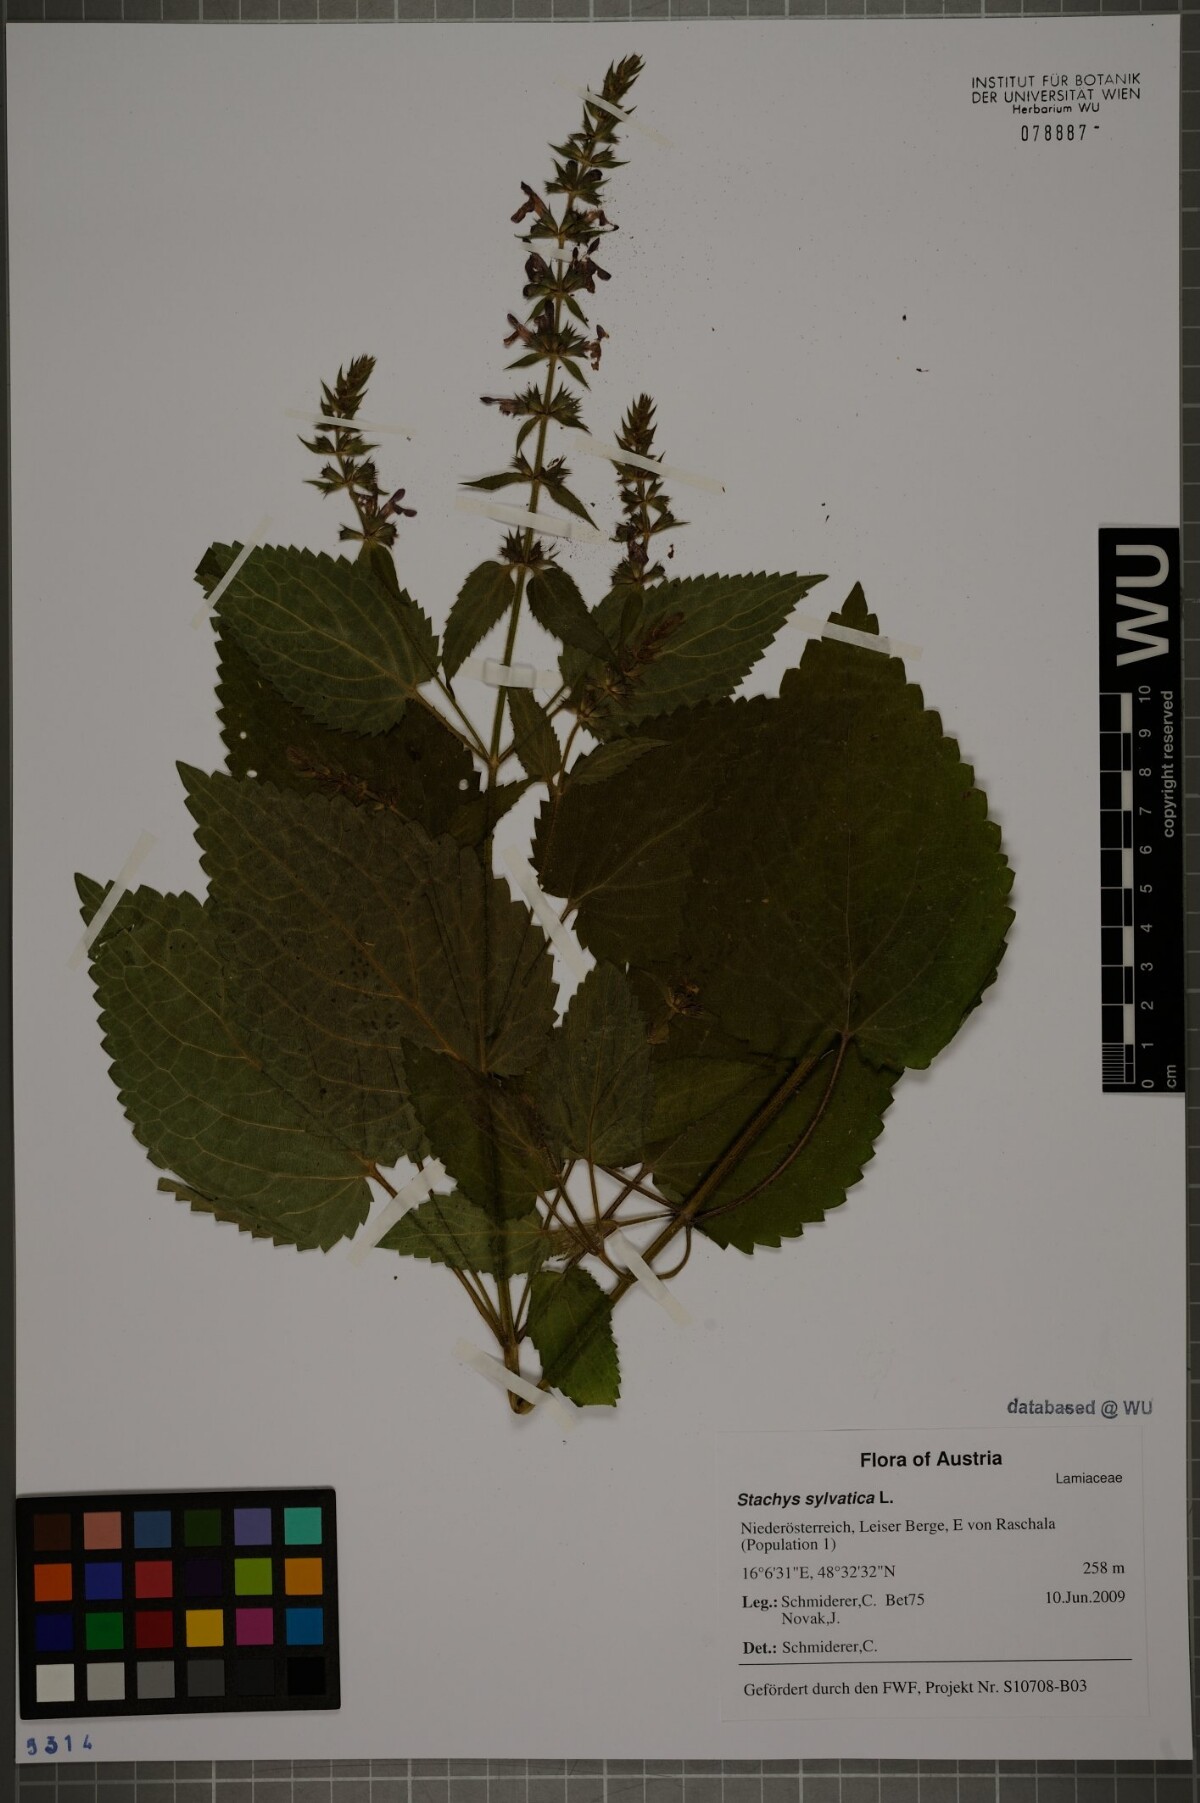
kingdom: Plantae
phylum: Tracheophyta
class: Magnoliopsida
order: Lamiales
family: Lamiaceae
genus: Stachys
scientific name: Stachys sylvatica
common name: Hedge woundwort
